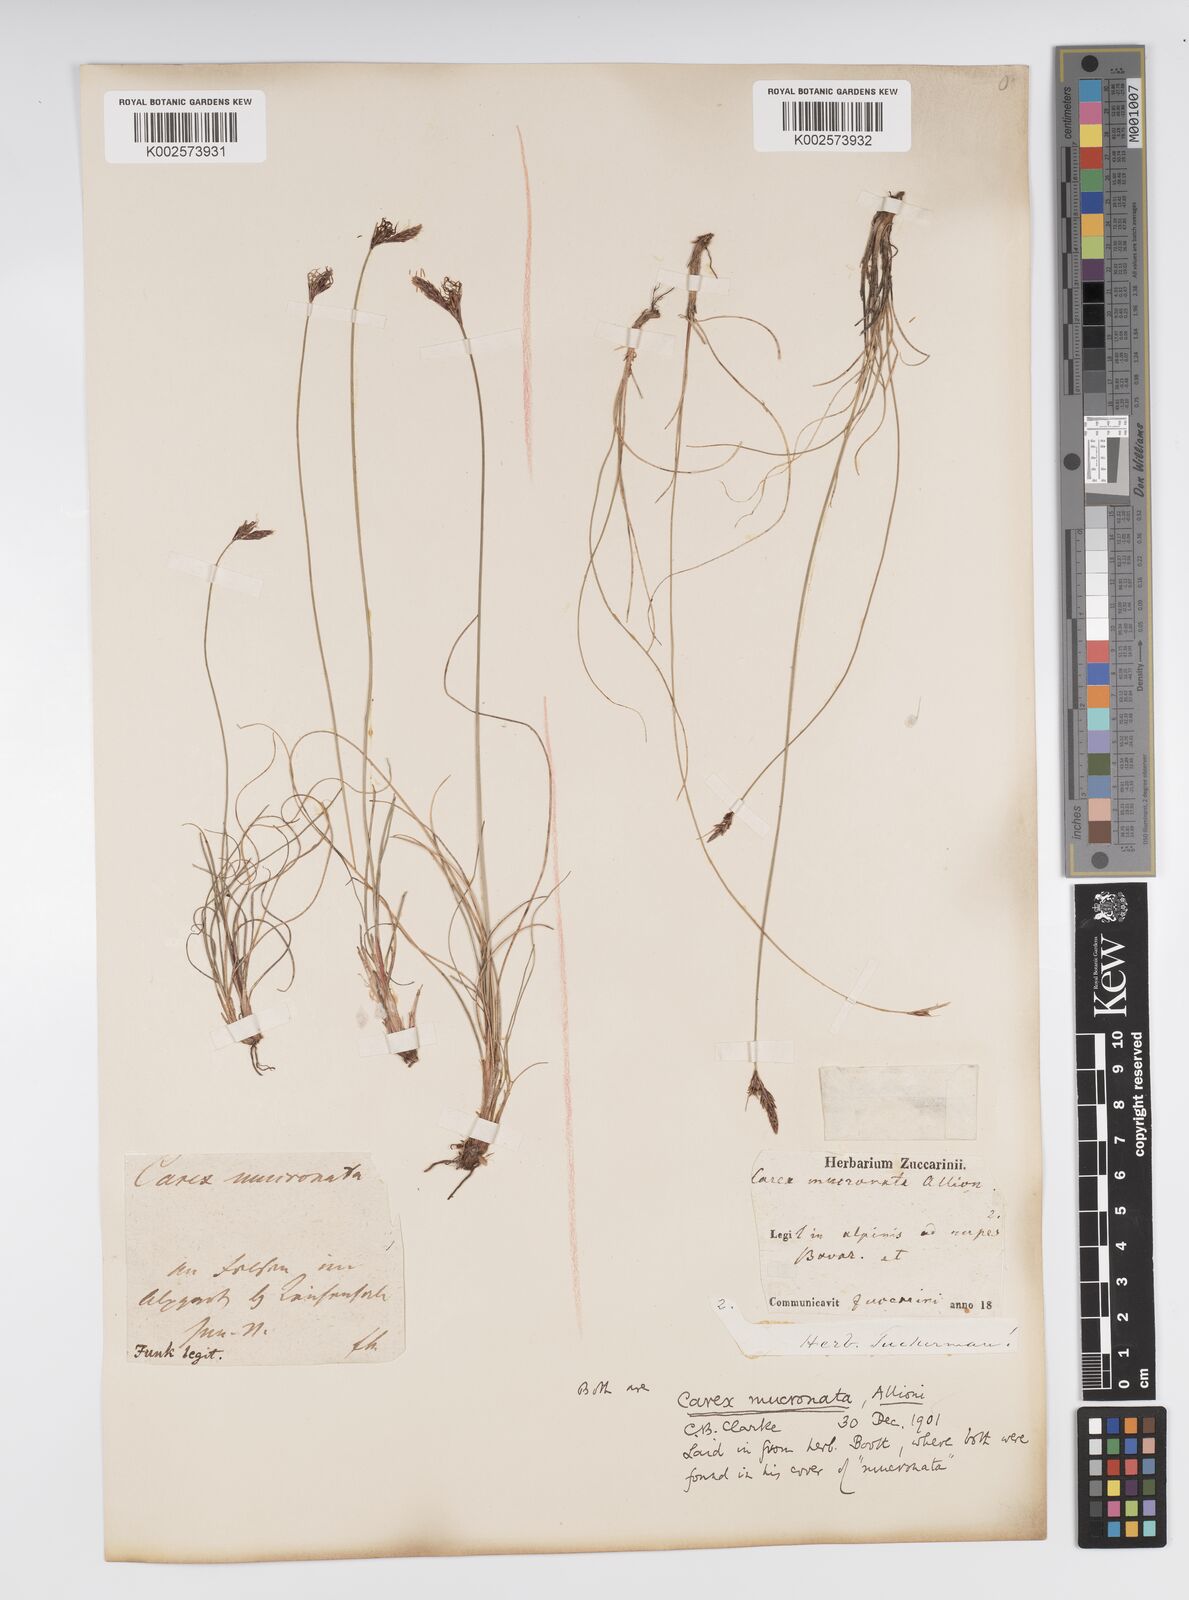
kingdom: Plantae
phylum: Tracheophyta
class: Liliopsida
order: Poales
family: Cyperaceae
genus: Carex
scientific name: Carex mucronata
